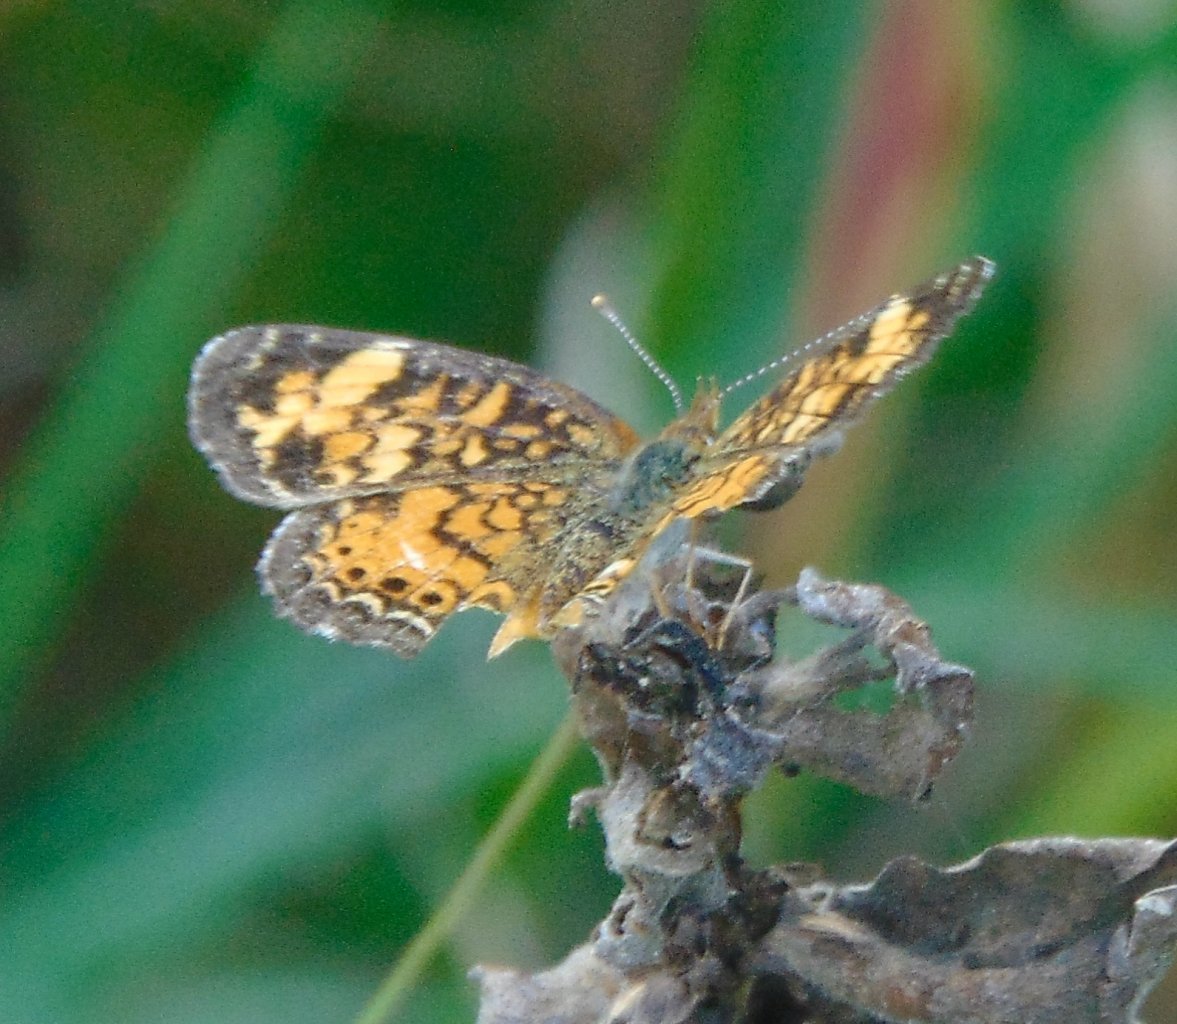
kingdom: Animalia
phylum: Arthropoda
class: Insecta
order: Lepidoptera
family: Nymphalidae
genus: Phyciodes
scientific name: Phyciodes tharos
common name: Pearl Crescent
